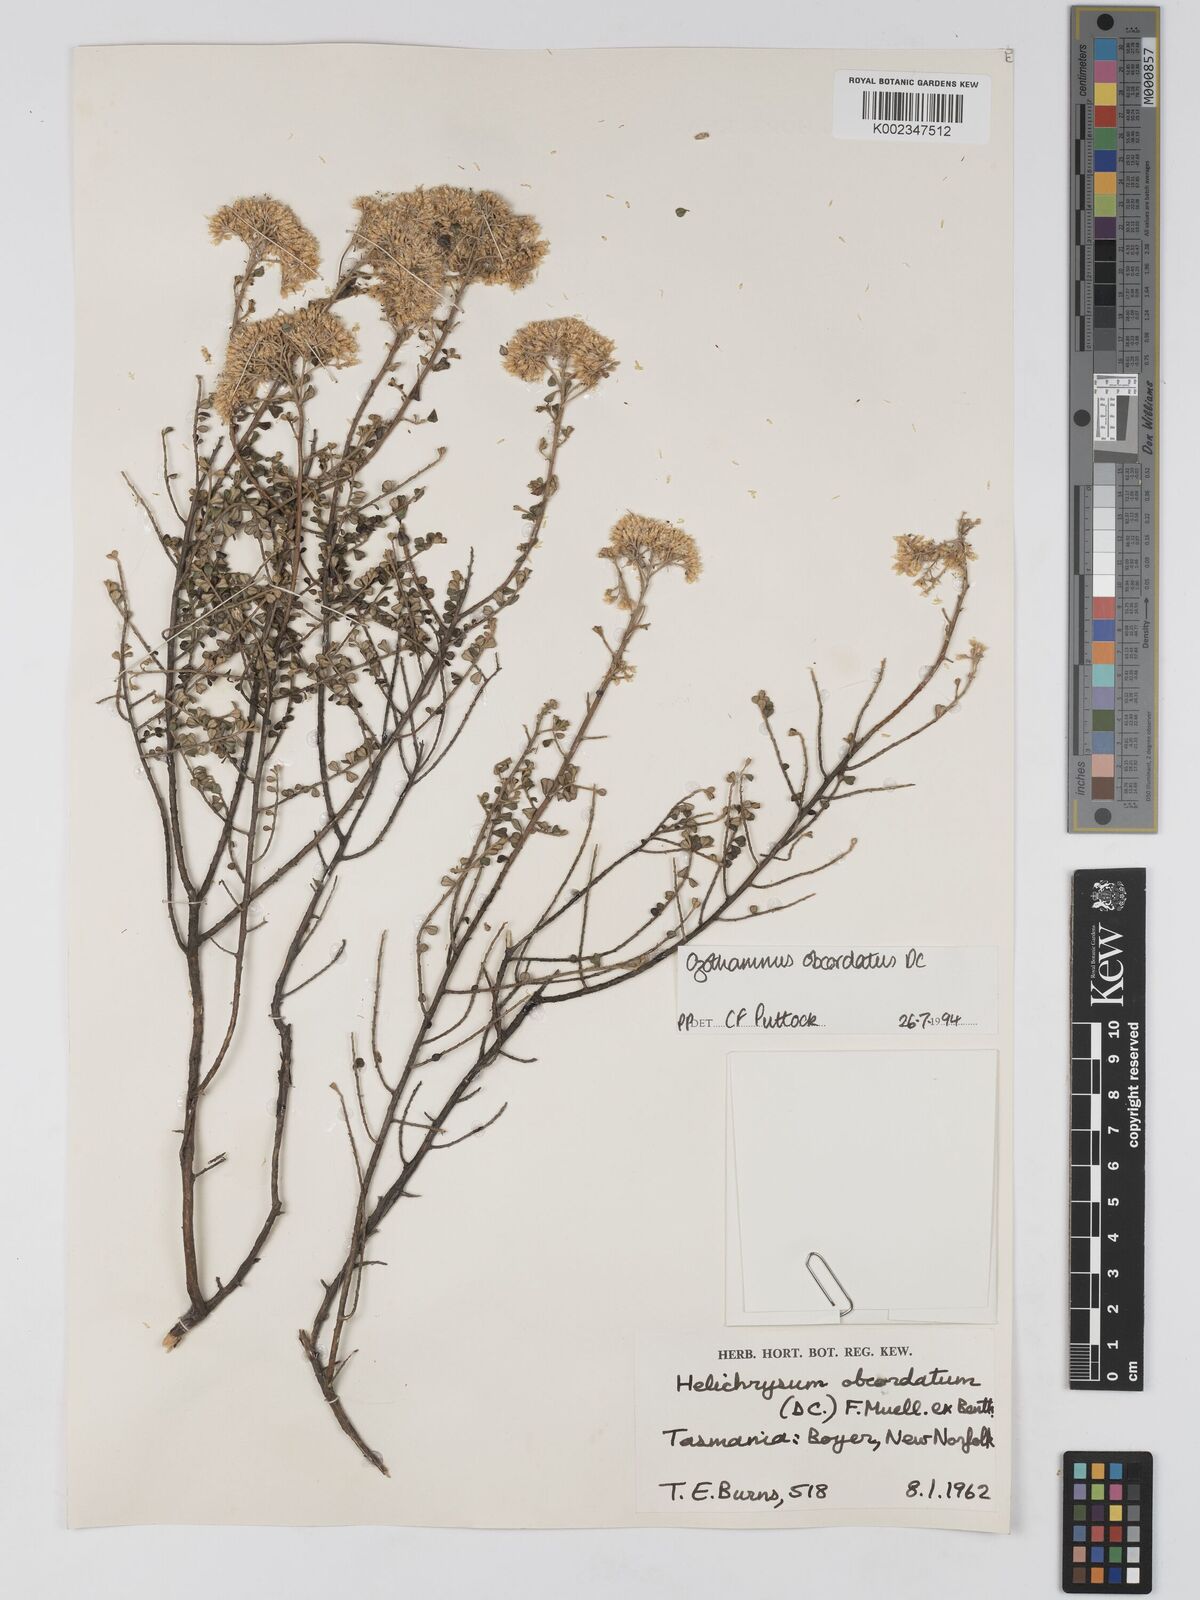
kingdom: Plantae
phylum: Tracheophyta
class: Magnoliopsida
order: Asterales
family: Asteraceae
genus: Ozothamnus
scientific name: Ozothamnus
